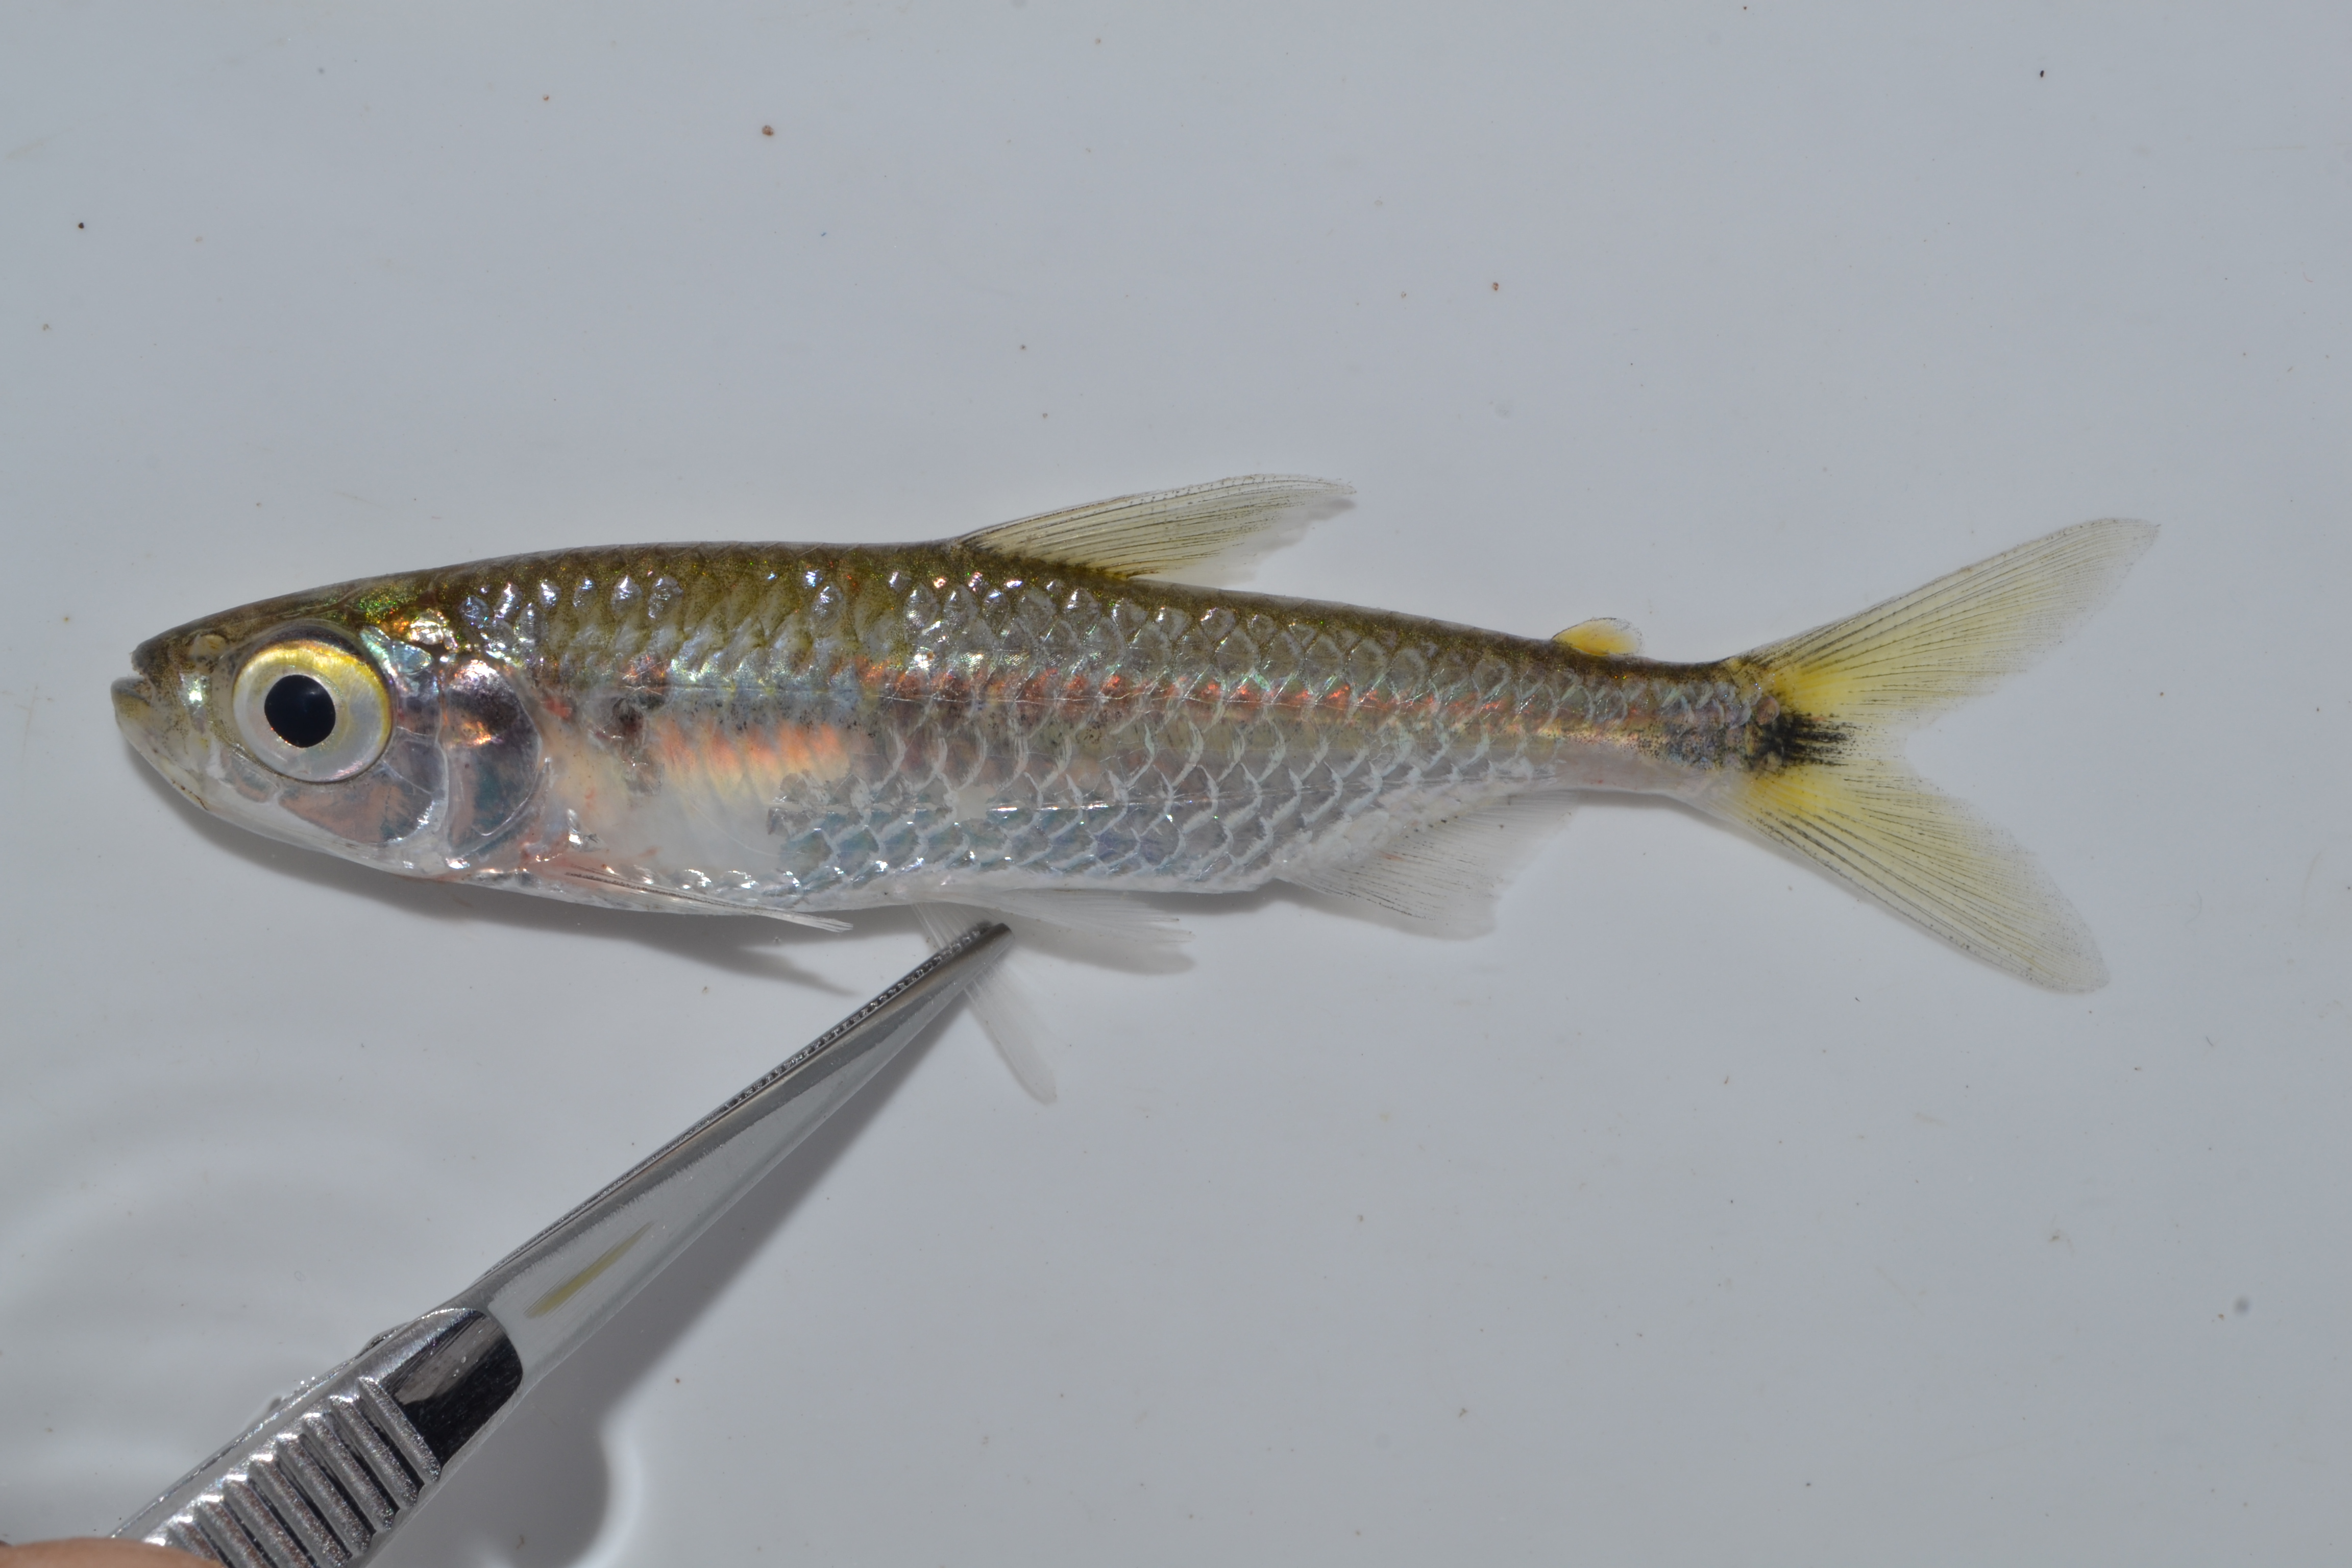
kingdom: Animalia
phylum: Chordata
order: Characiformes
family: Alestidae
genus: Brycinus
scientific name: Brycinus lateralis
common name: Striped robber
